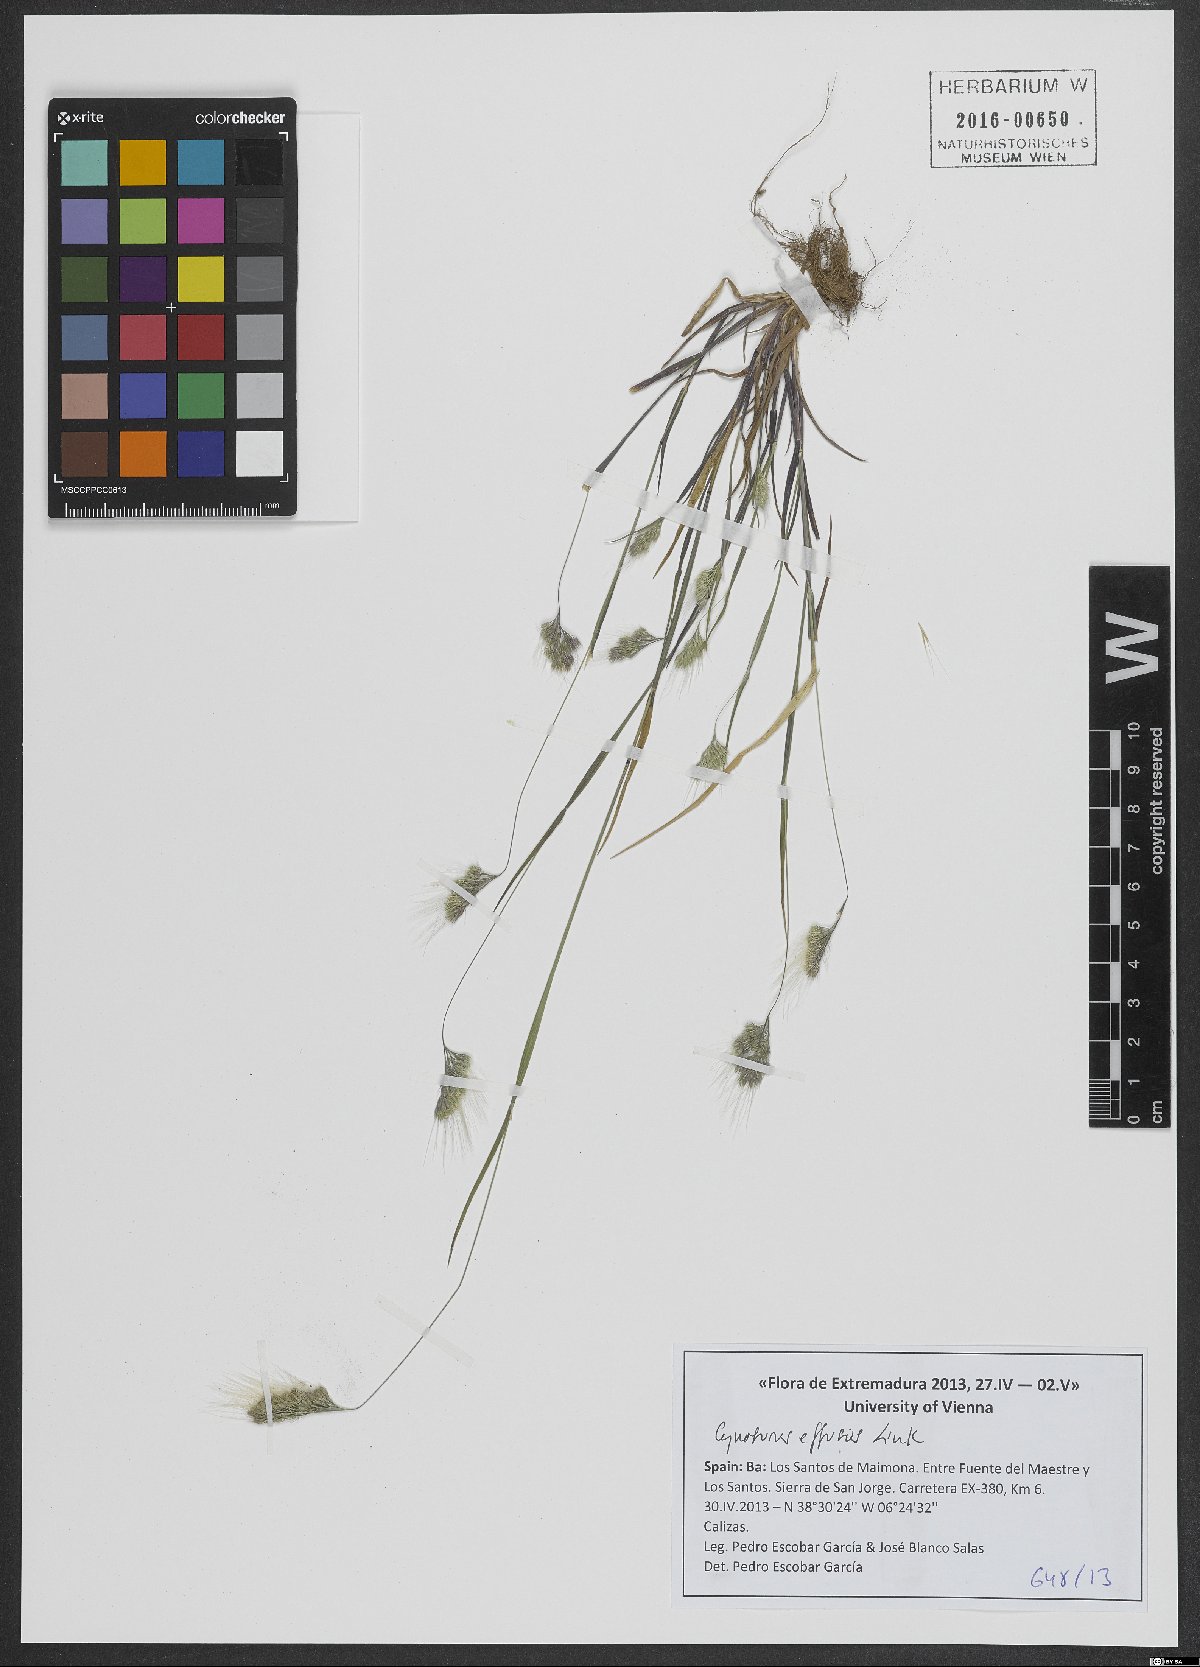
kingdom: Plantae
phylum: Tracheophyta
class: Liliopsida
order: Poales
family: Poaceae
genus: Cynosurus
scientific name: Cynosurus effusus
